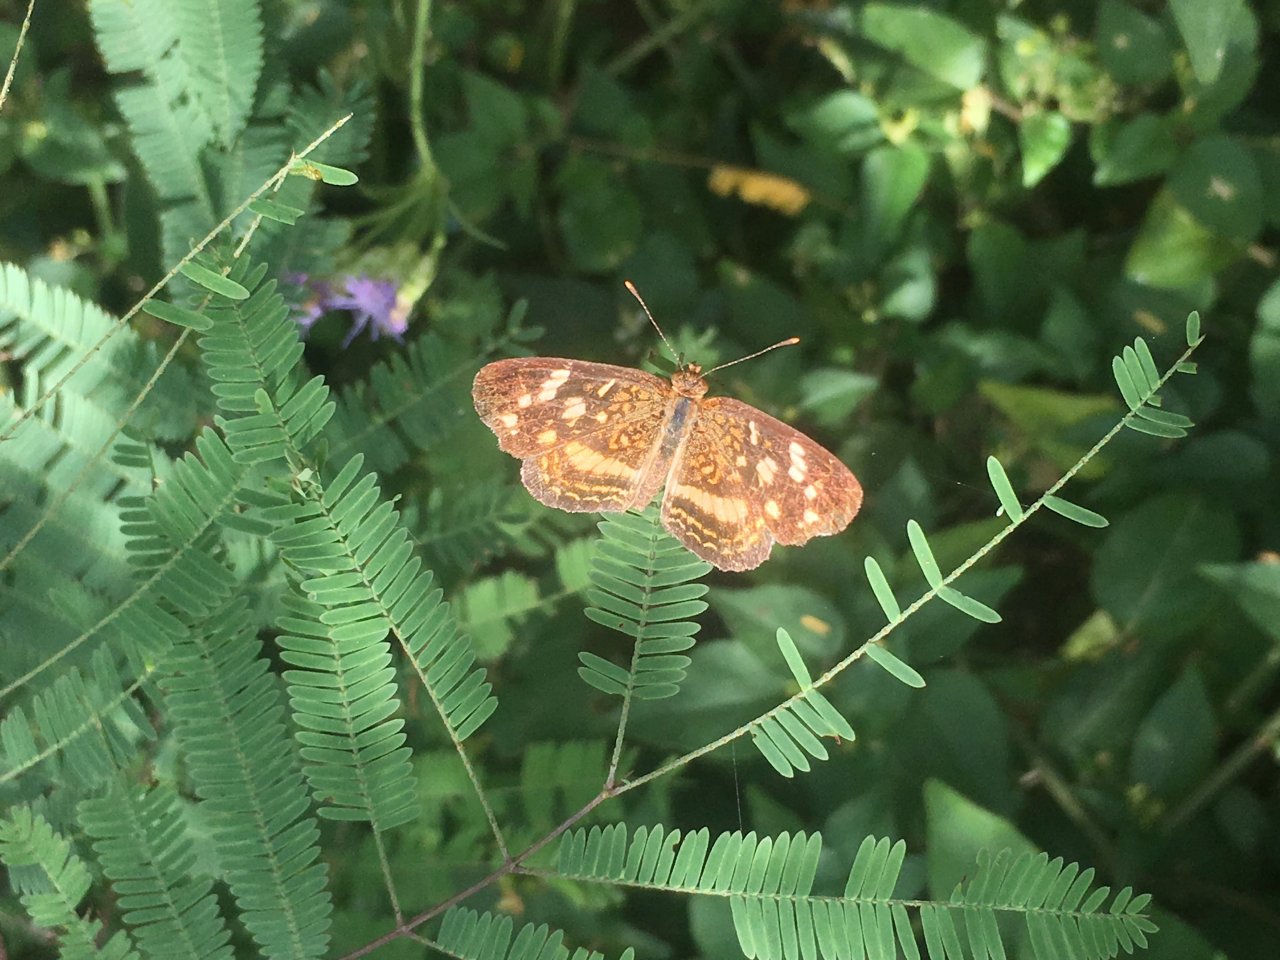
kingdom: Animalia
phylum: Arthropoda
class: Insecta
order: Lepidoptera
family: Nymphalidae
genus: Anthanassa
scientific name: Anthanassa tulcis
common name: Pale-banded Crescent
